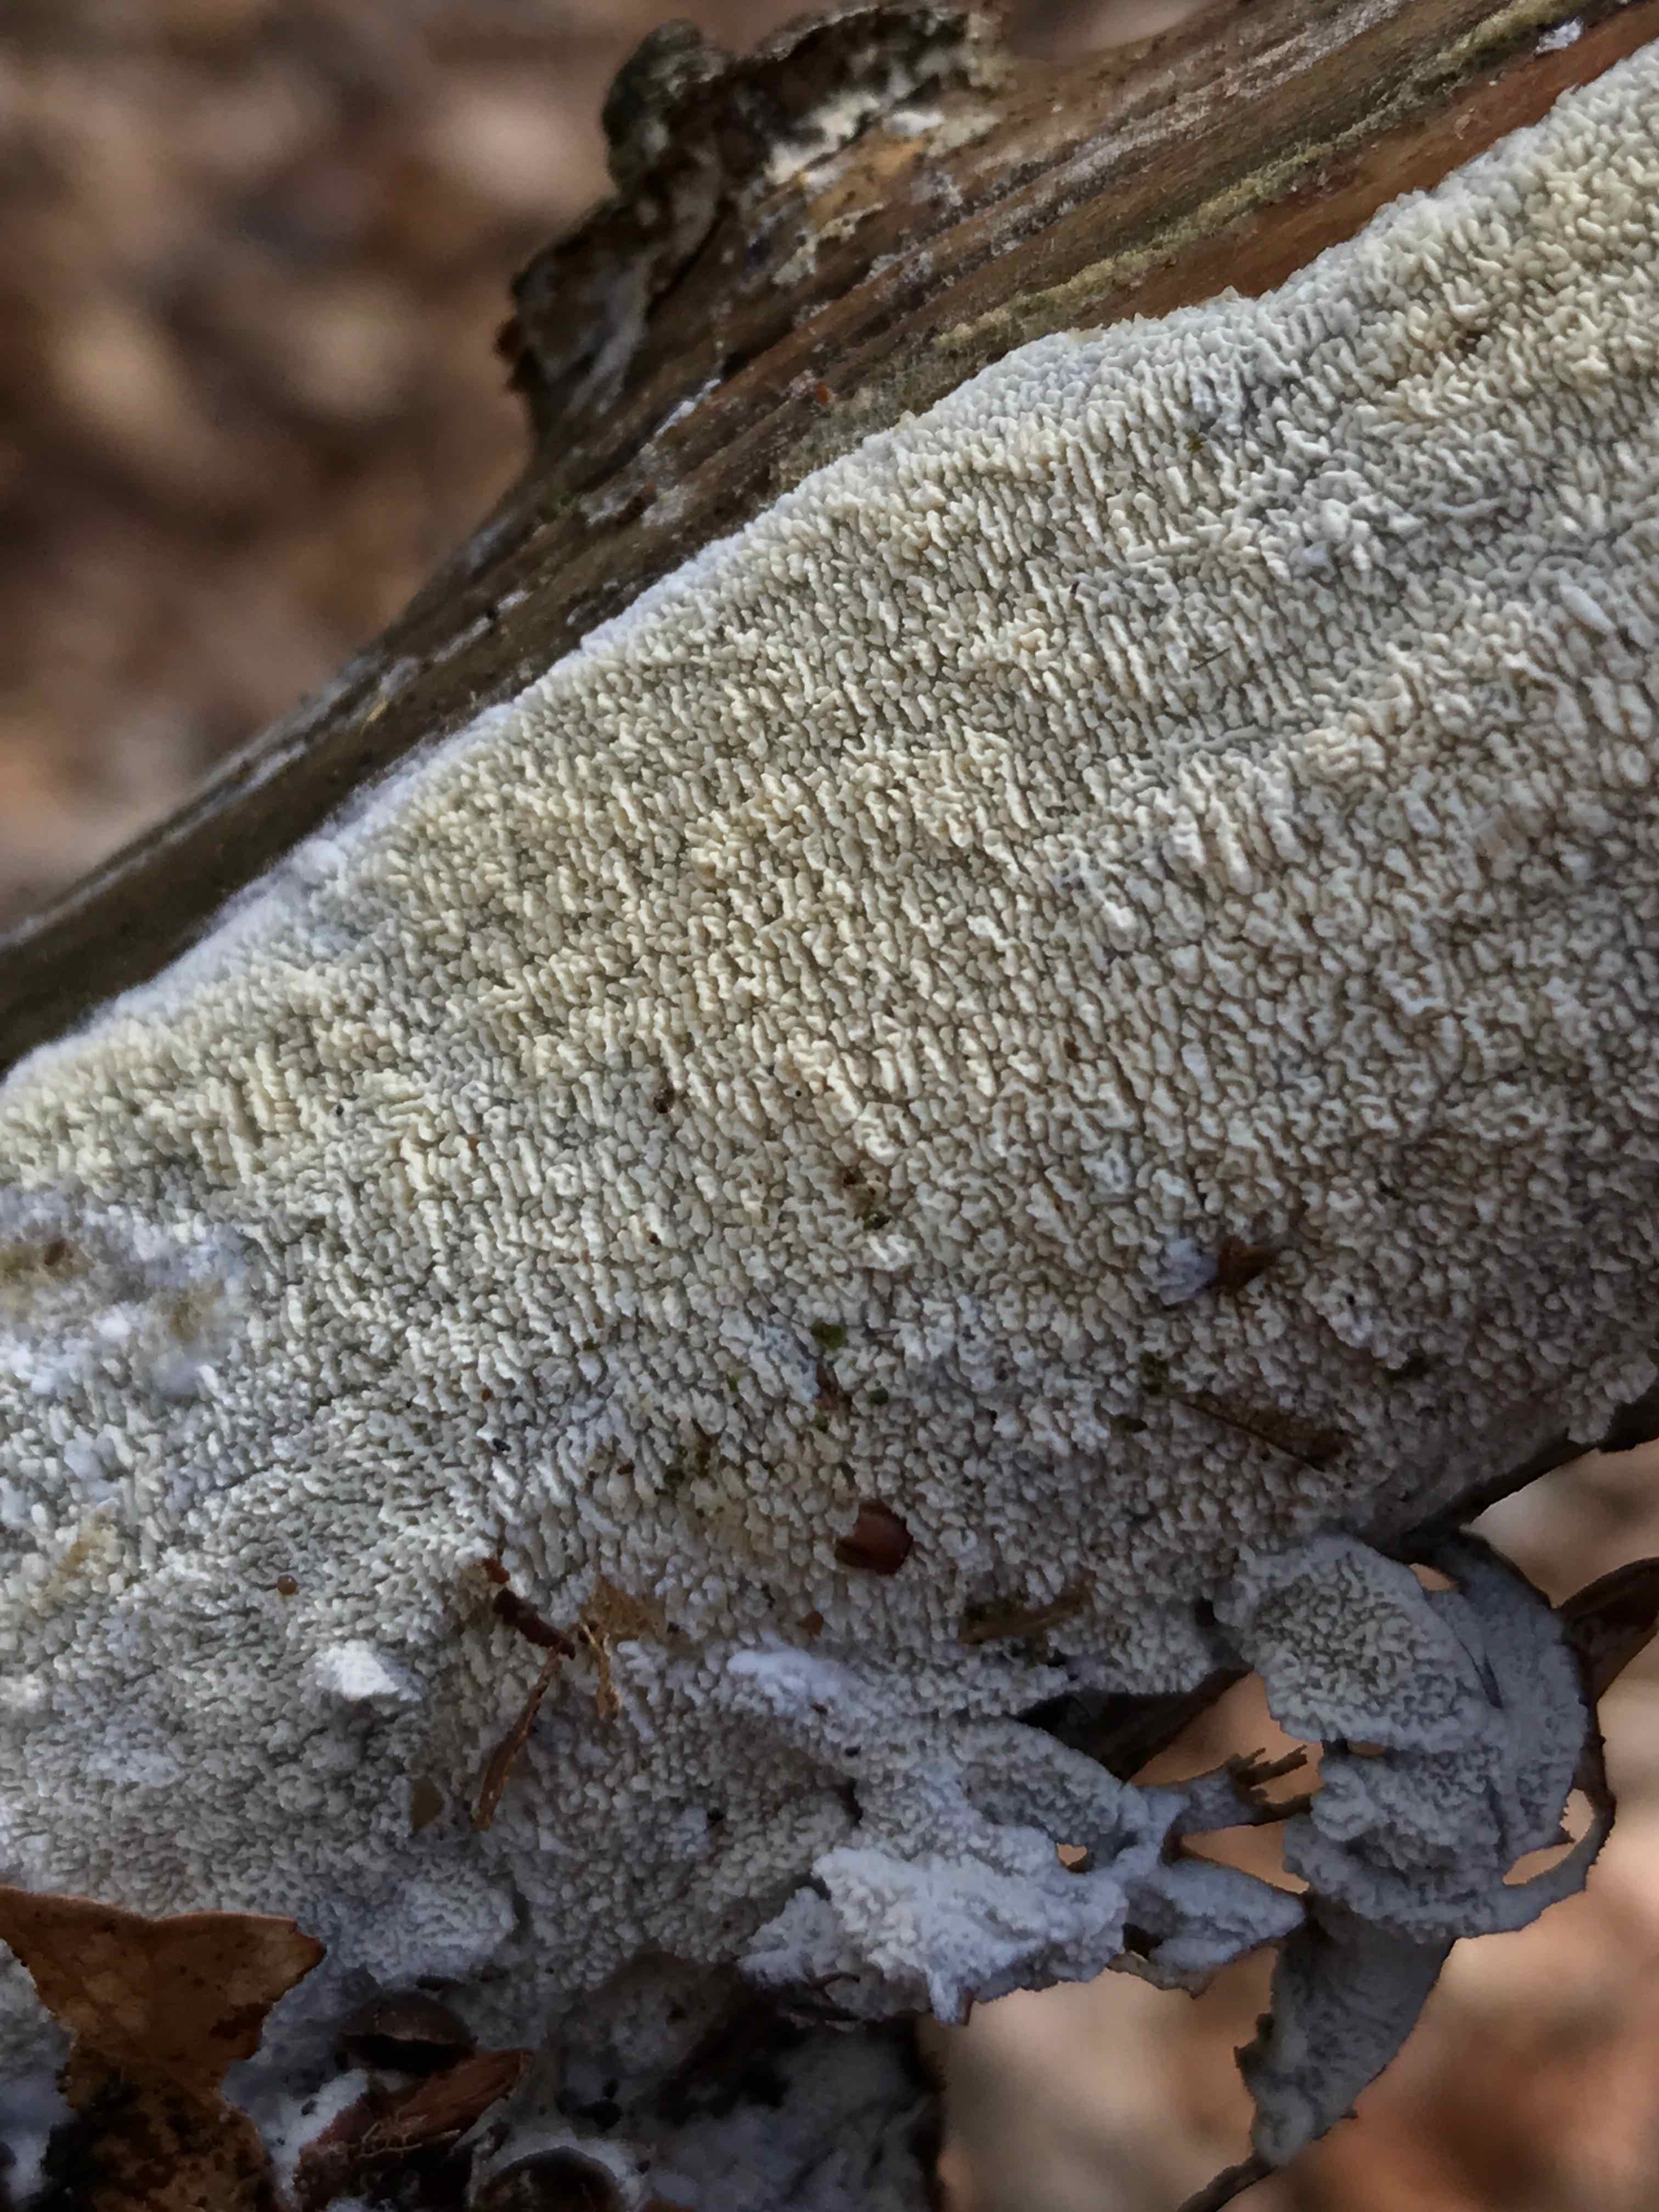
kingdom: Fungi
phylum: Basidiomycota
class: Agaricomycetes
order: Hymenochaetales
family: Schizoporaceae
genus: Schizopora
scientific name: Schizopora paradoxa
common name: hvid tandsvamp
